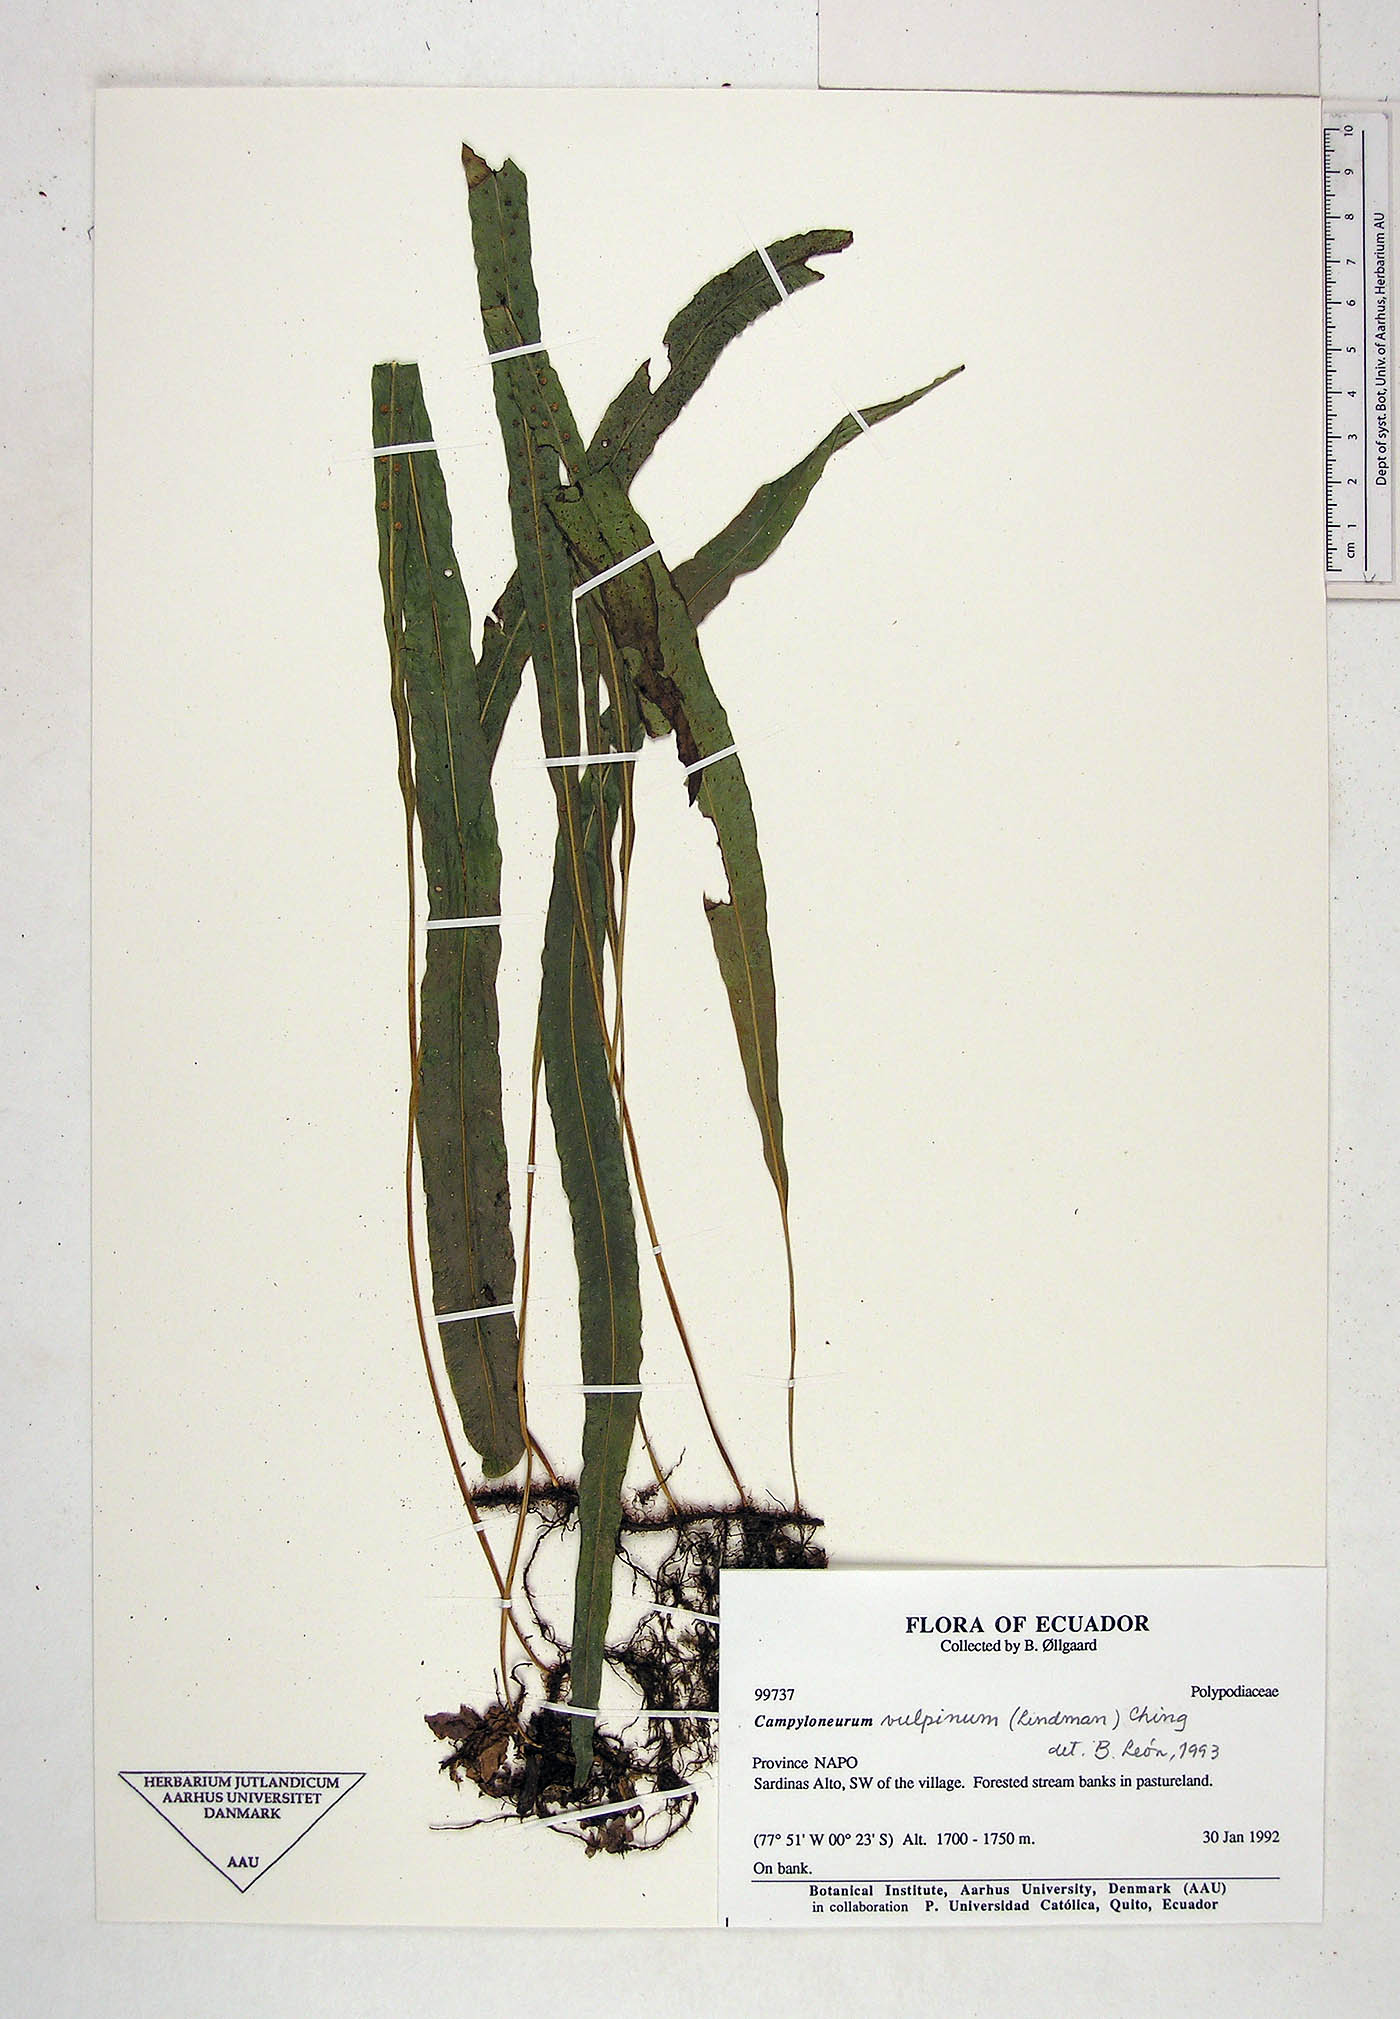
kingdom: Plantae
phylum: Tracheophyta
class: Polypodiopsida
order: Polypodiales
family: Polypodiaceae
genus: Campyloneurum
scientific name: Campyloneurum vulpinum
